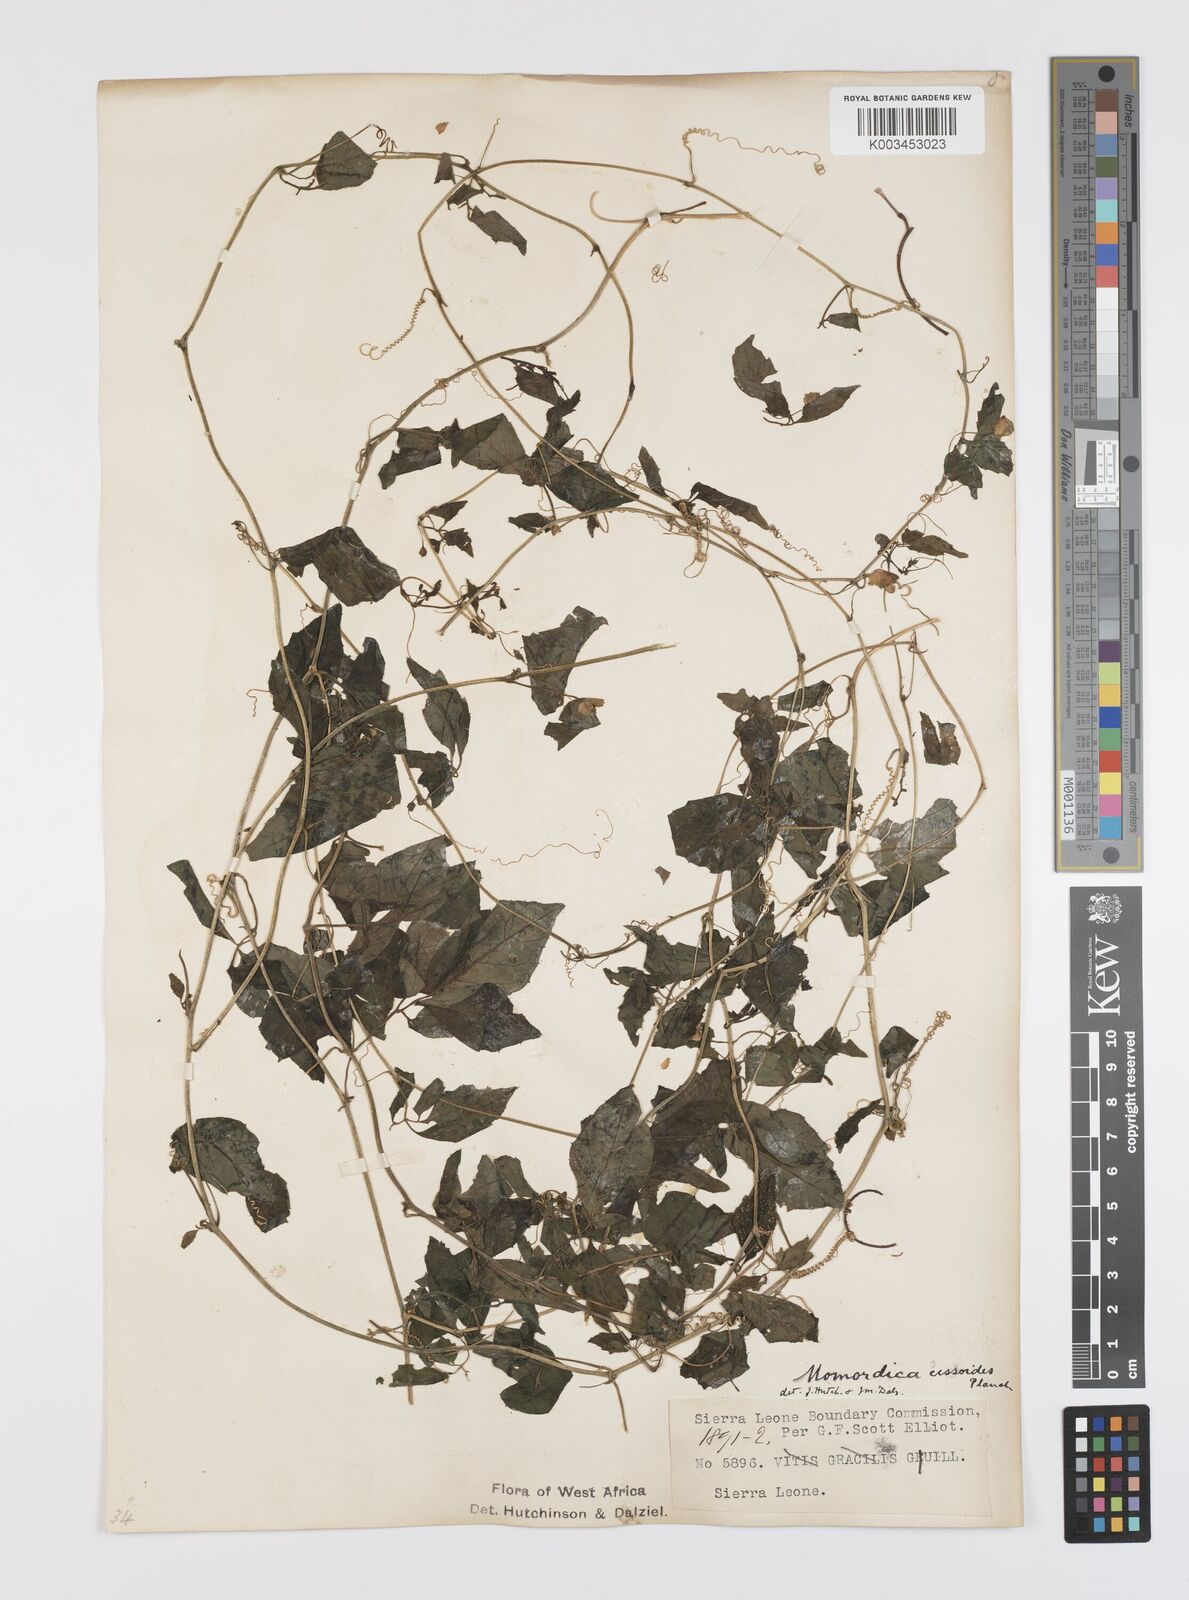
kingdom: Plantae
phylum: Tracheophyta
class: Magnoliopsida
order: Cucurbitales
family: Cucurbitaceae
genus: Momordica
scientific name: Momordica cissoides
